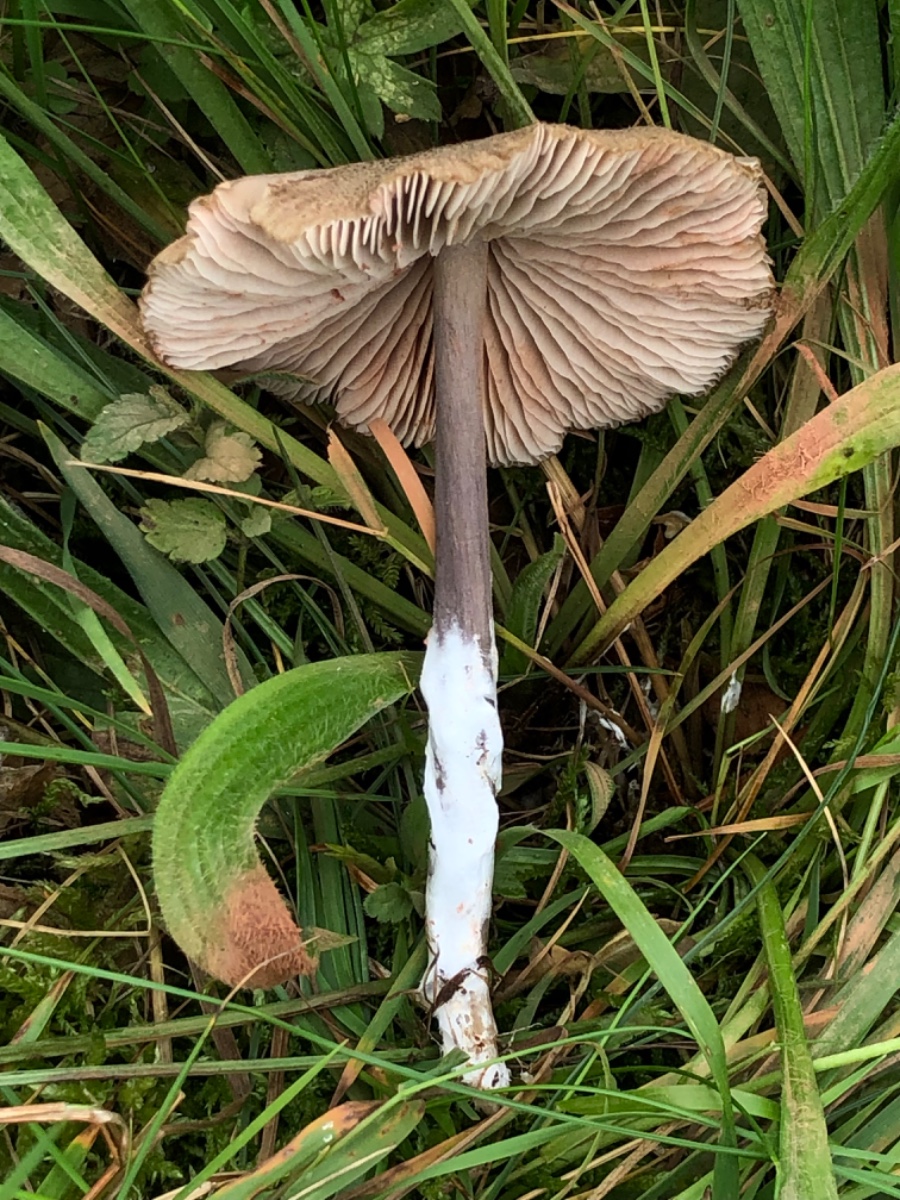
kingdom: Fungi
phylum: Basidiomycota
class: Agaricomycetes
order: Agaricales
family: Entolomataceae
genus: Entoloma
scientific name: Entoloma griseocyaneum
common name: gråblå rødblad
